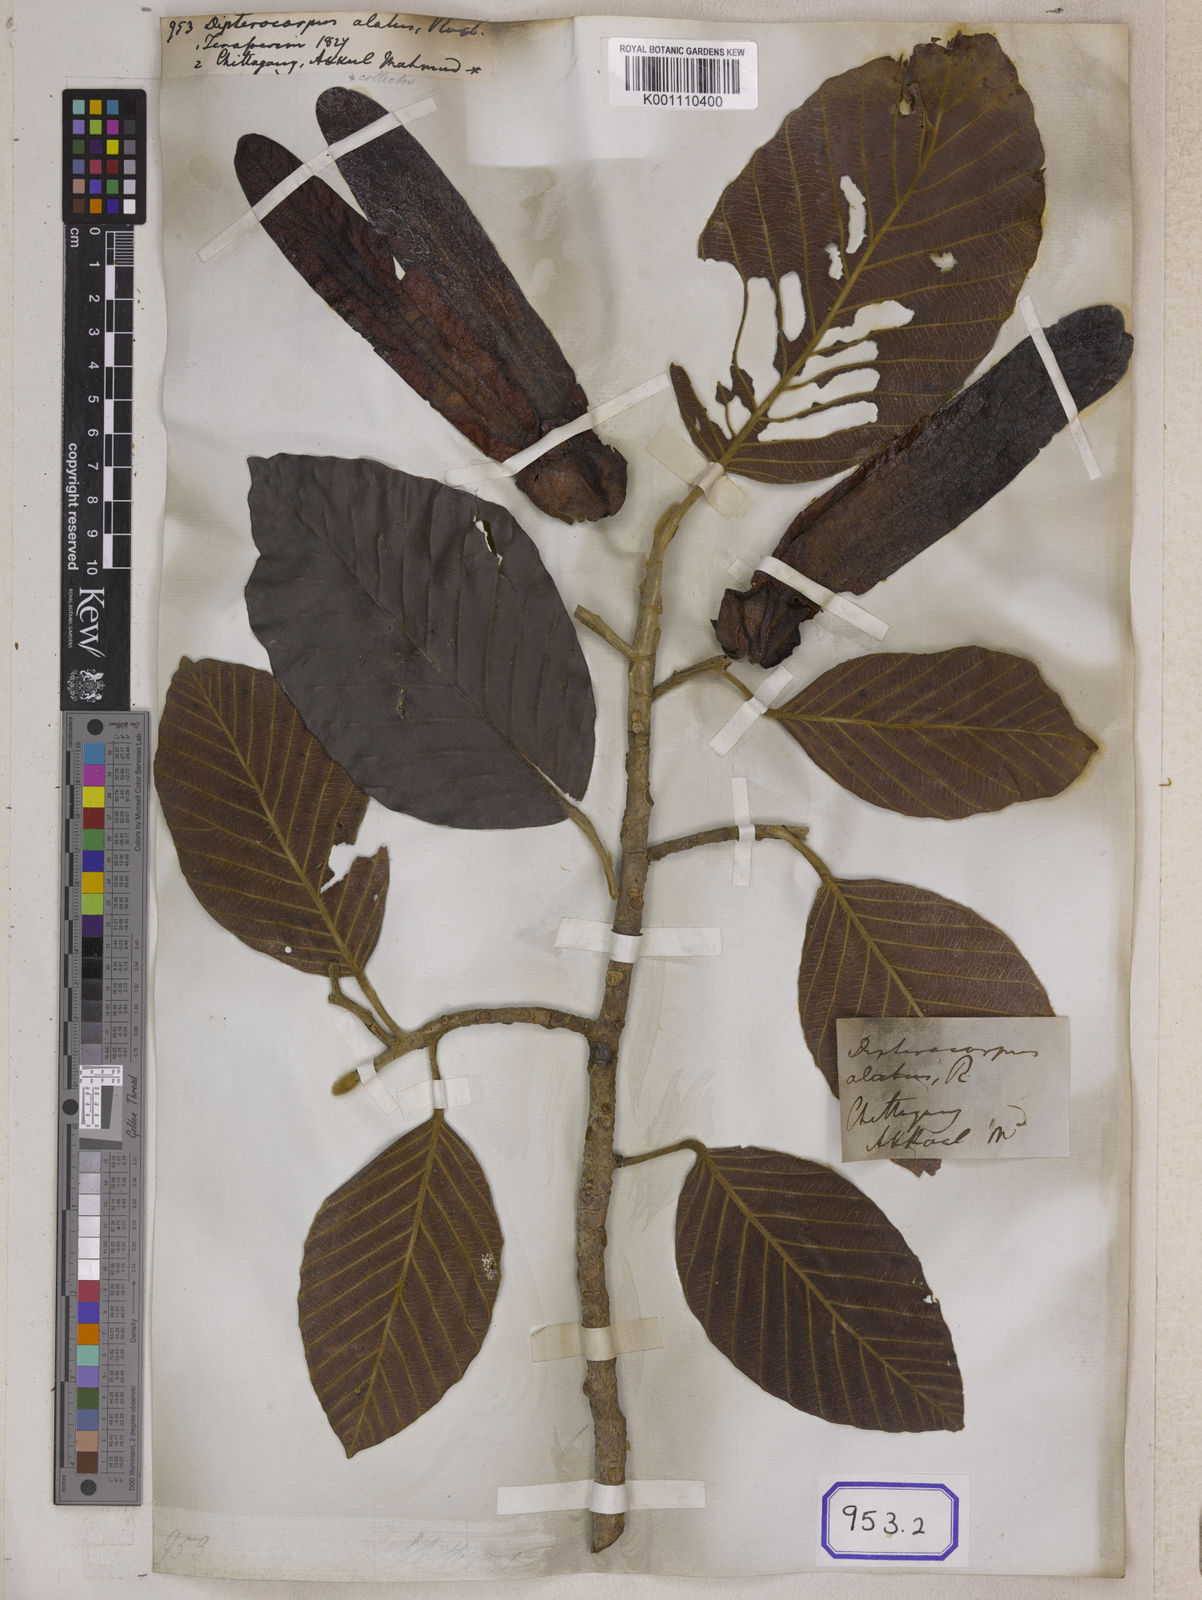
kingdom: Plantae
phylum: Tracheophyta
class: Magnoliopsida
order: Malvales
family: Dipterocarpaceae
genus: Dipterocarpus
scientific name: Dipterocarpus
